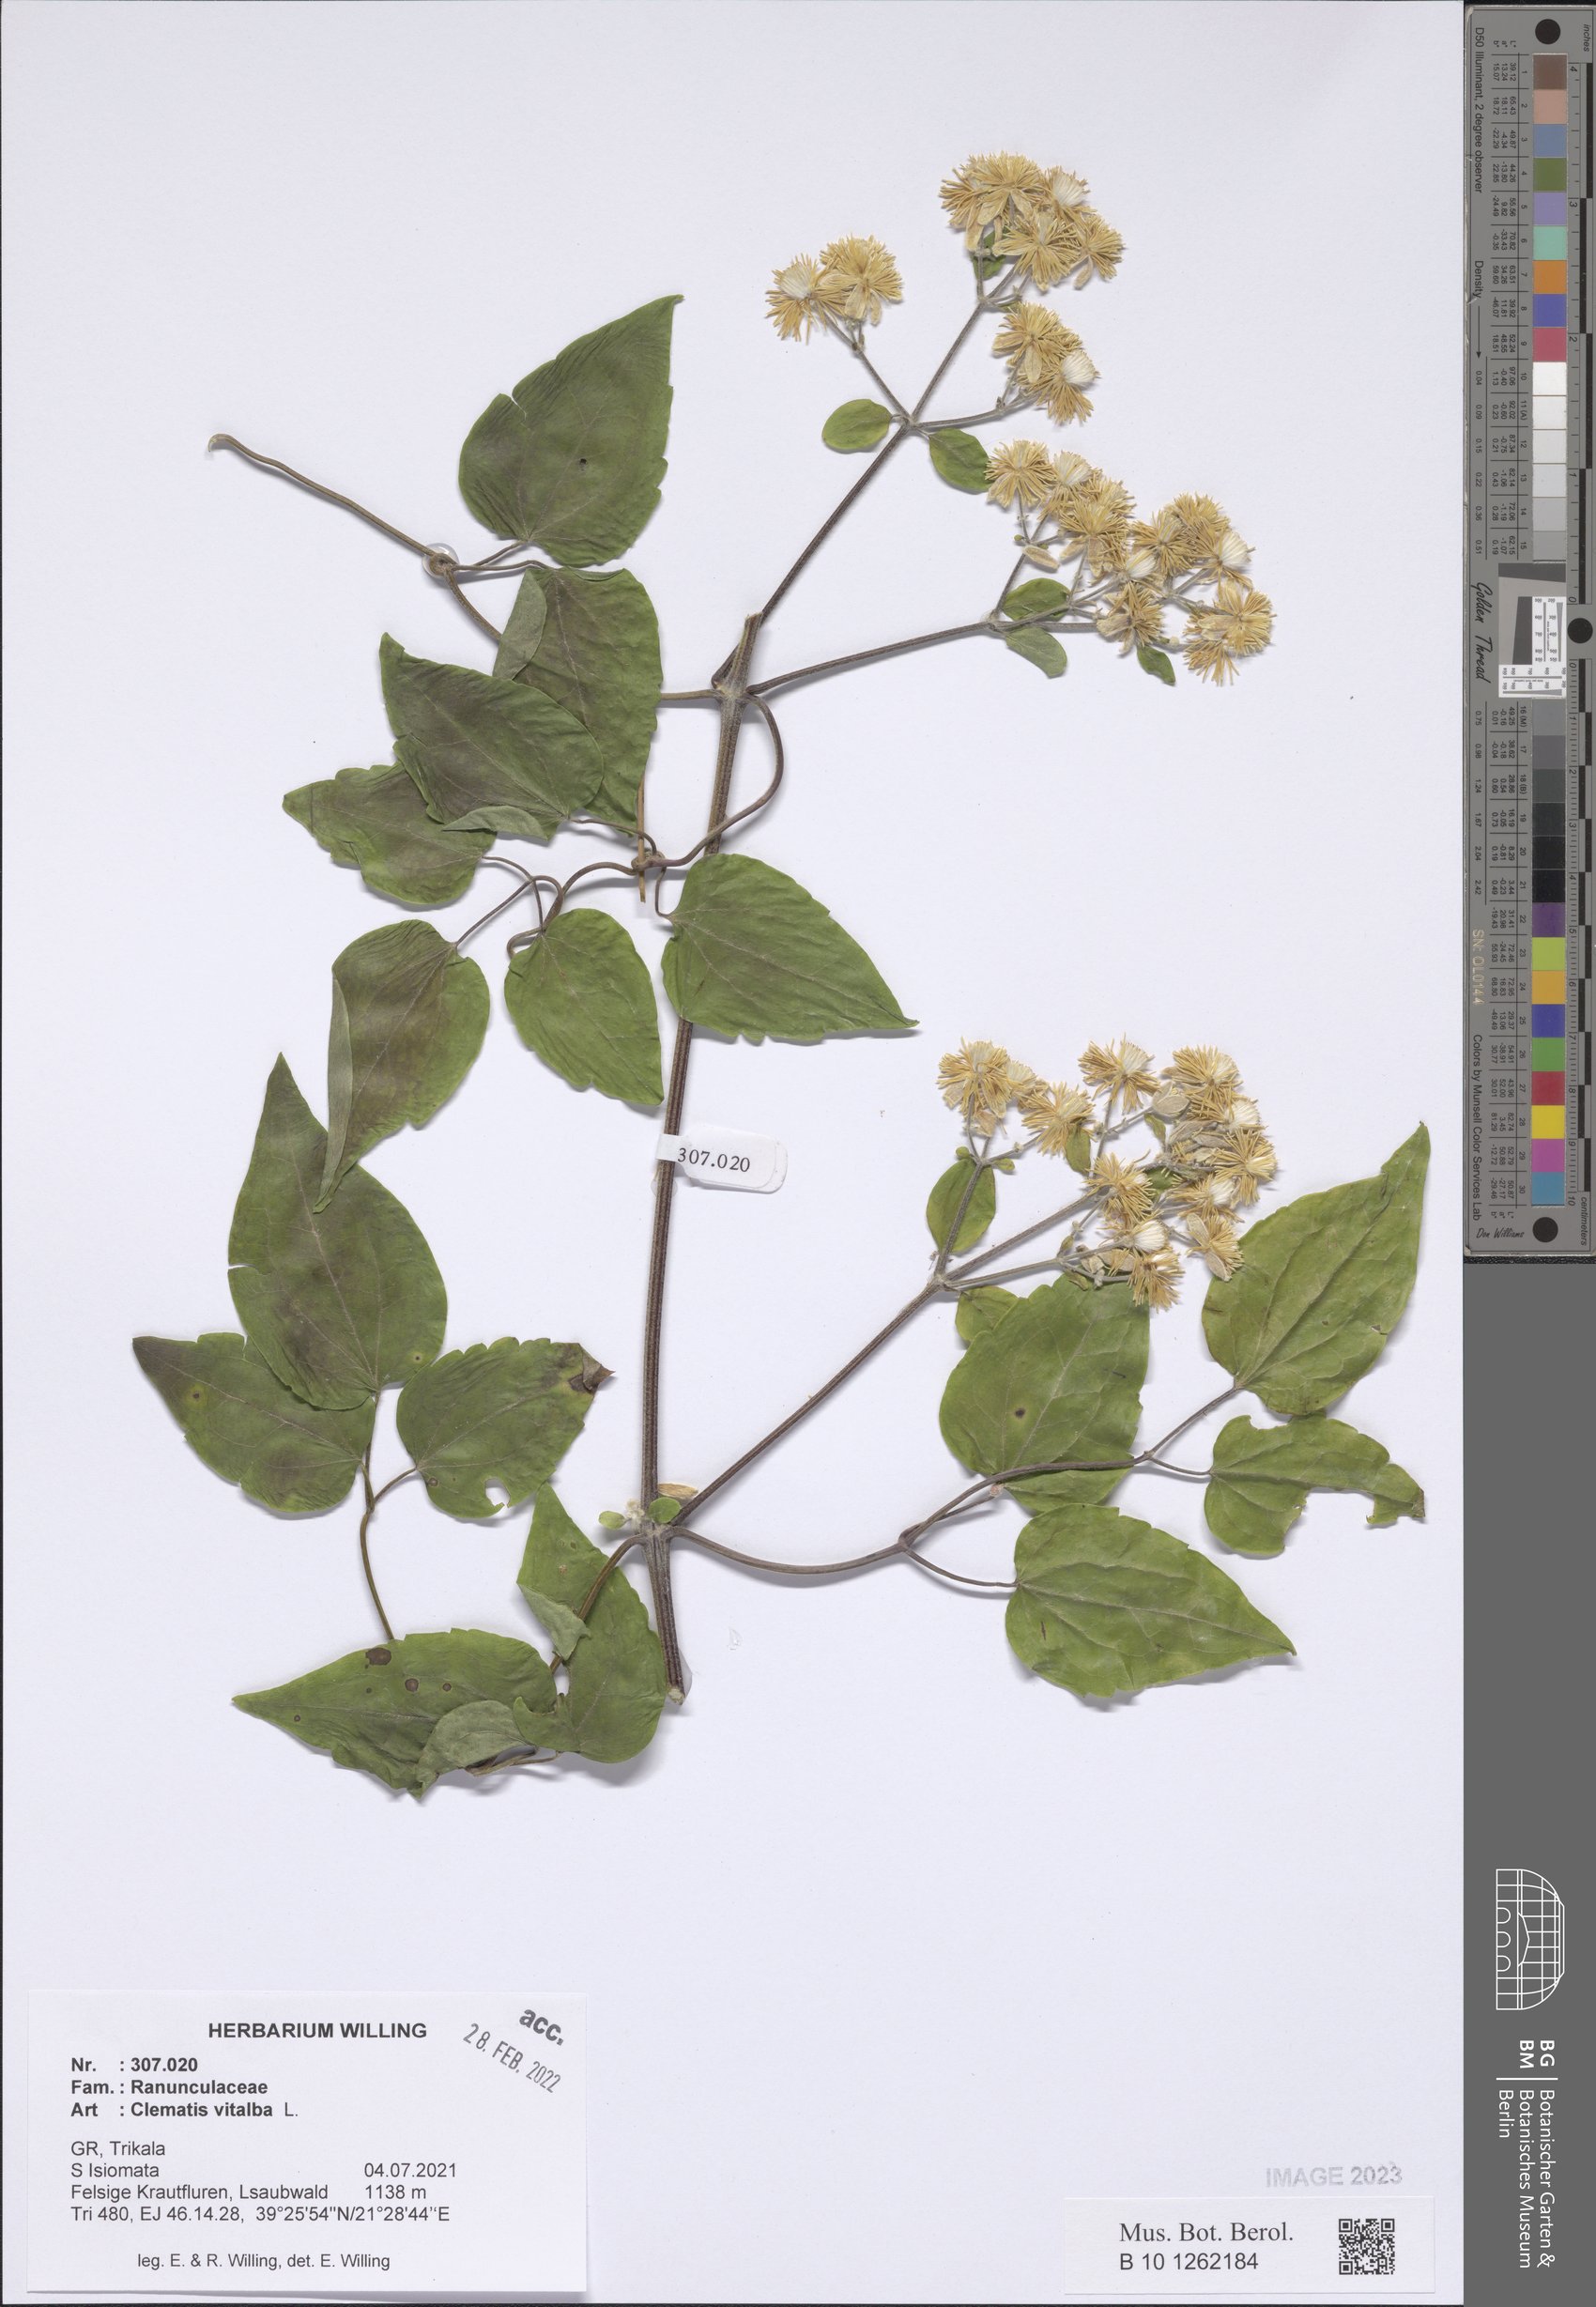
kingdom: Plantae
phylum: Tracheophyta
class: Magnoliopsida
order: Ranunculales
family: Ranunculaceae
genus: Clematis
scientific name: Clematis vitalba
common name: Evergreen clematis
